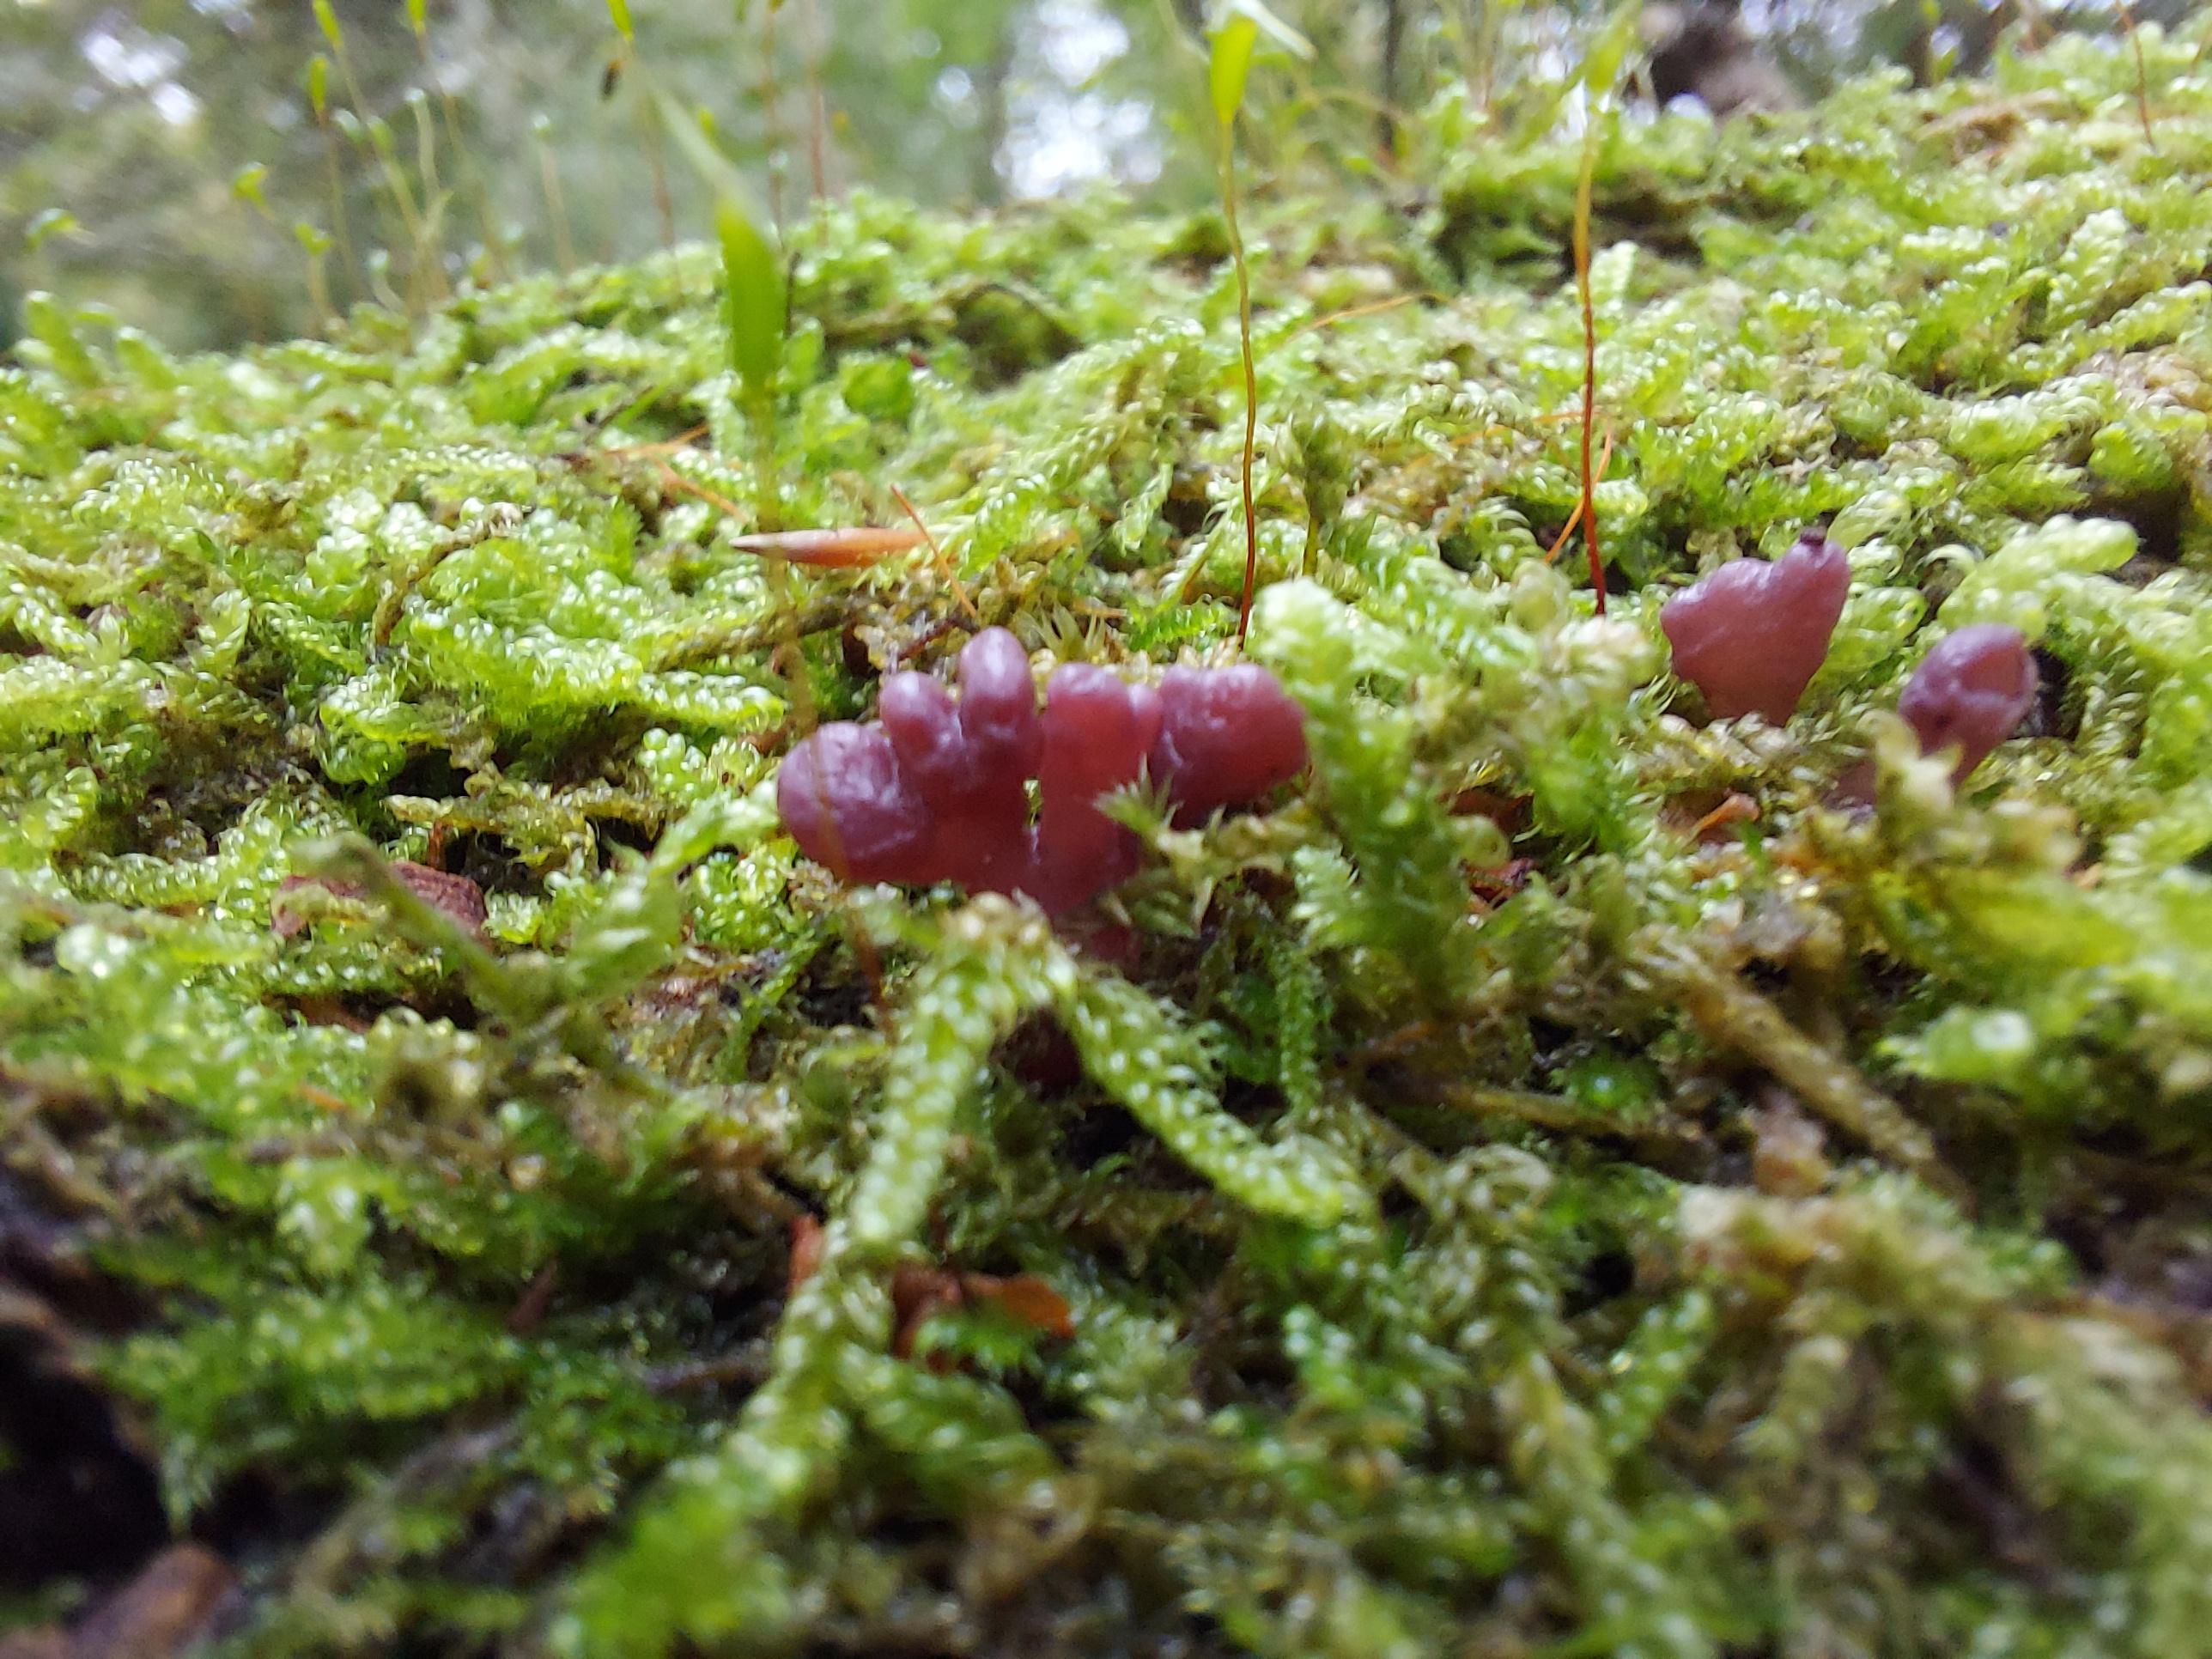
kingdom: Fungi
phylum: Ascomycota
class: Leotiomycetes
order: Helotiales
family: Gelatinodiscaceae
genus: Ascocoryne
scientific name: Ascocoryne sarcoides
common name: rødlilla sejskive
